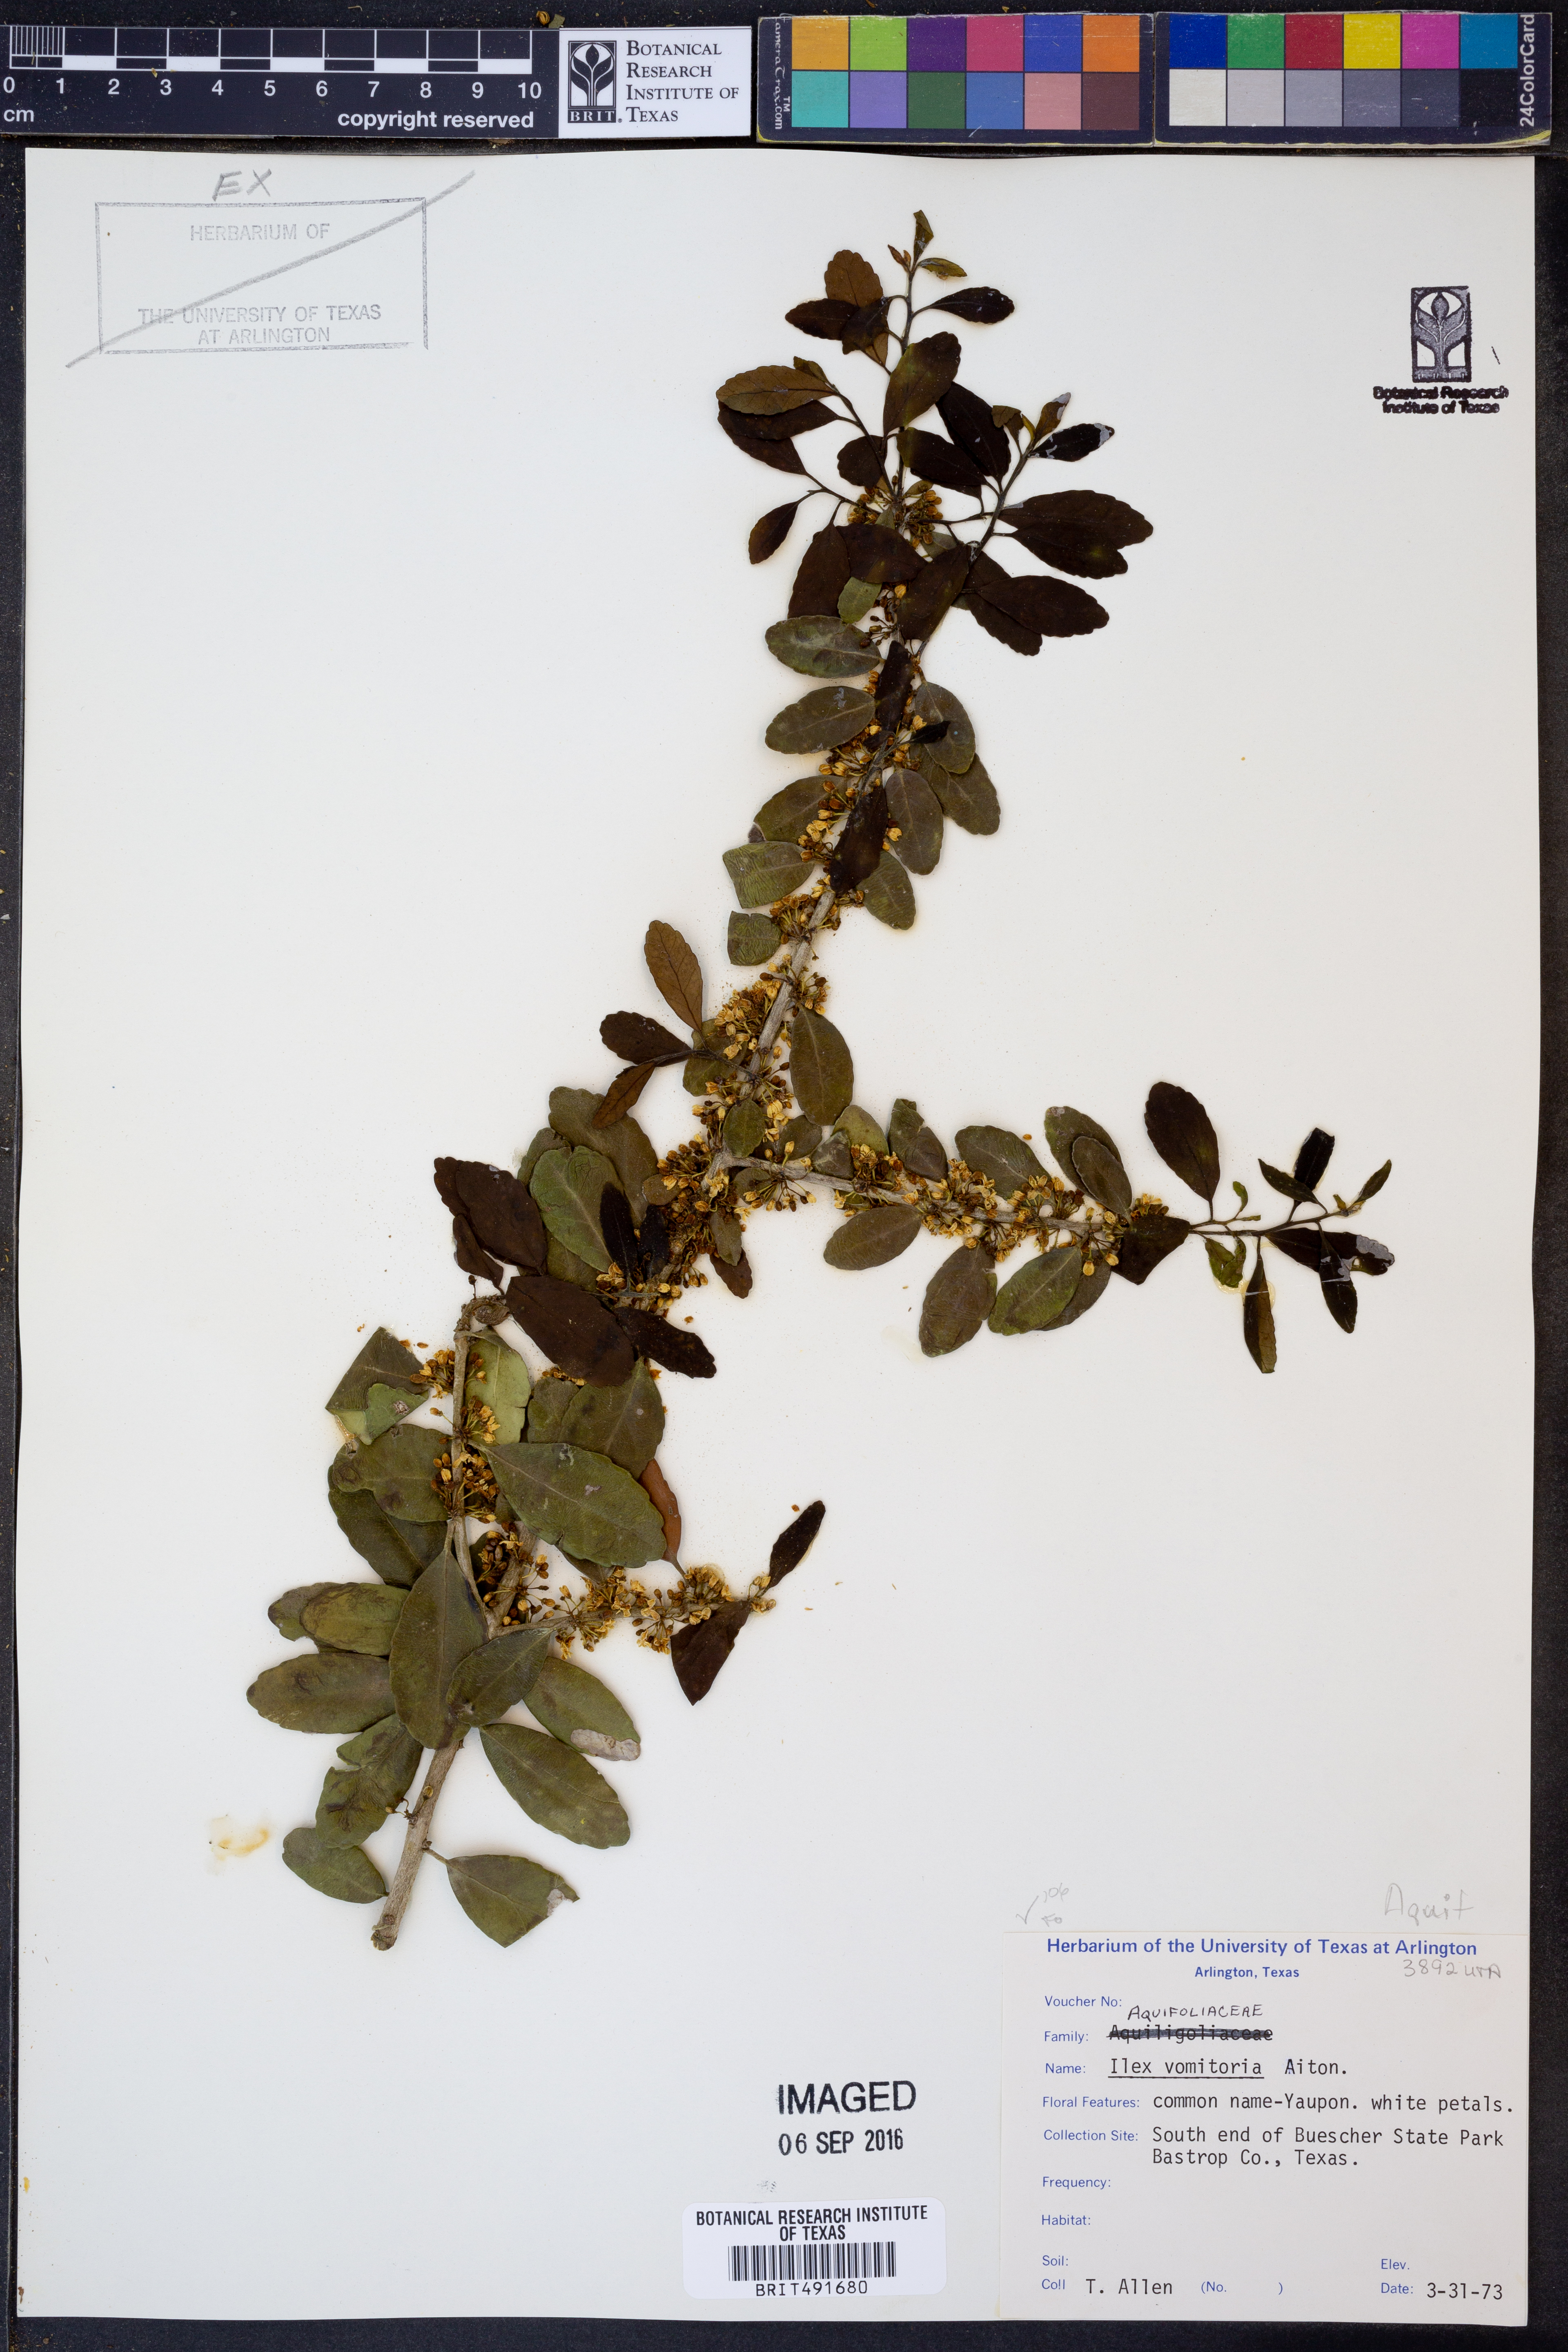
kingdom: Plantae
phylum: Tracheophyta
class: Magnoliopsida
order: Aquifoliales
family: Aquifoliaceae
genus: Ilex
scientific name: Ilex vomitoria
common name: Yaupon holly
